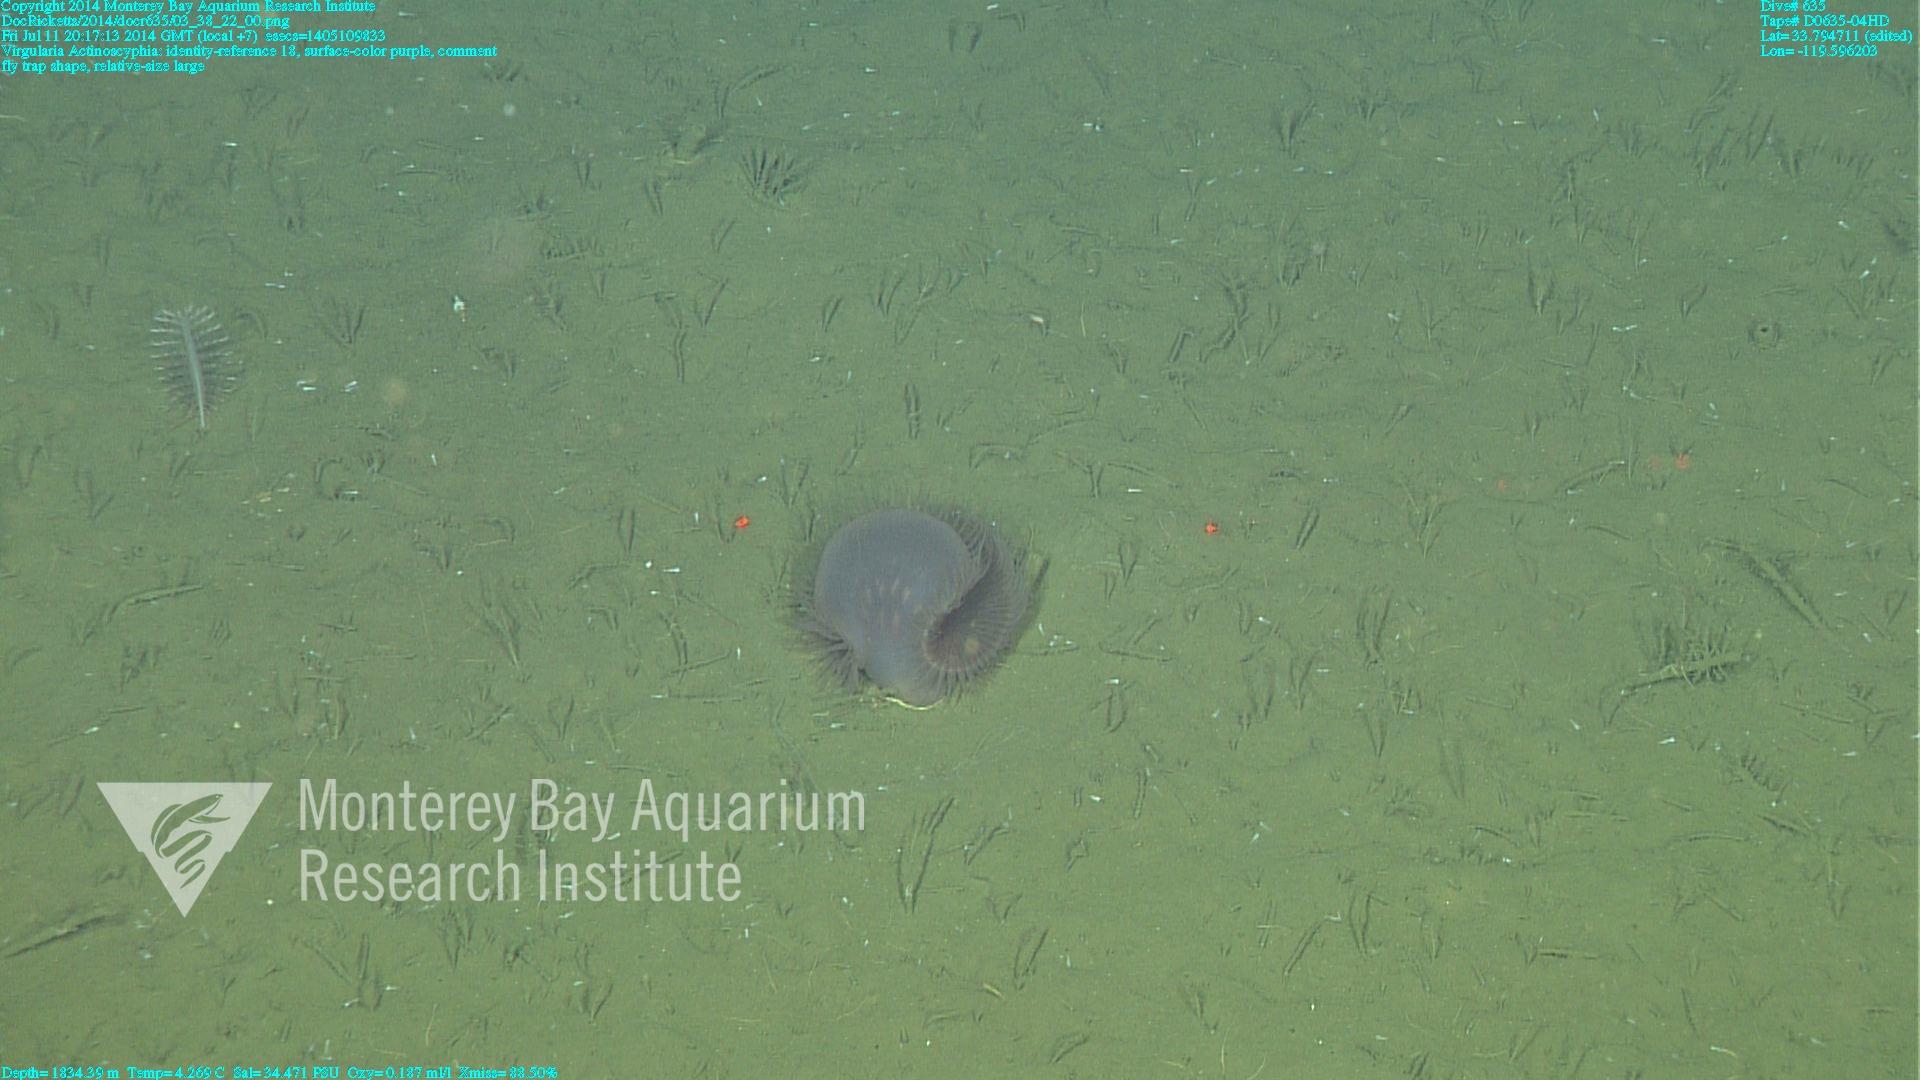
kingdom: Animalia
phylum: Cnidaria
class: Anthozoa
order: Scleralcyonacea
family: Virgulariidae
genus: Virgularia
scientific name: Virgularia
